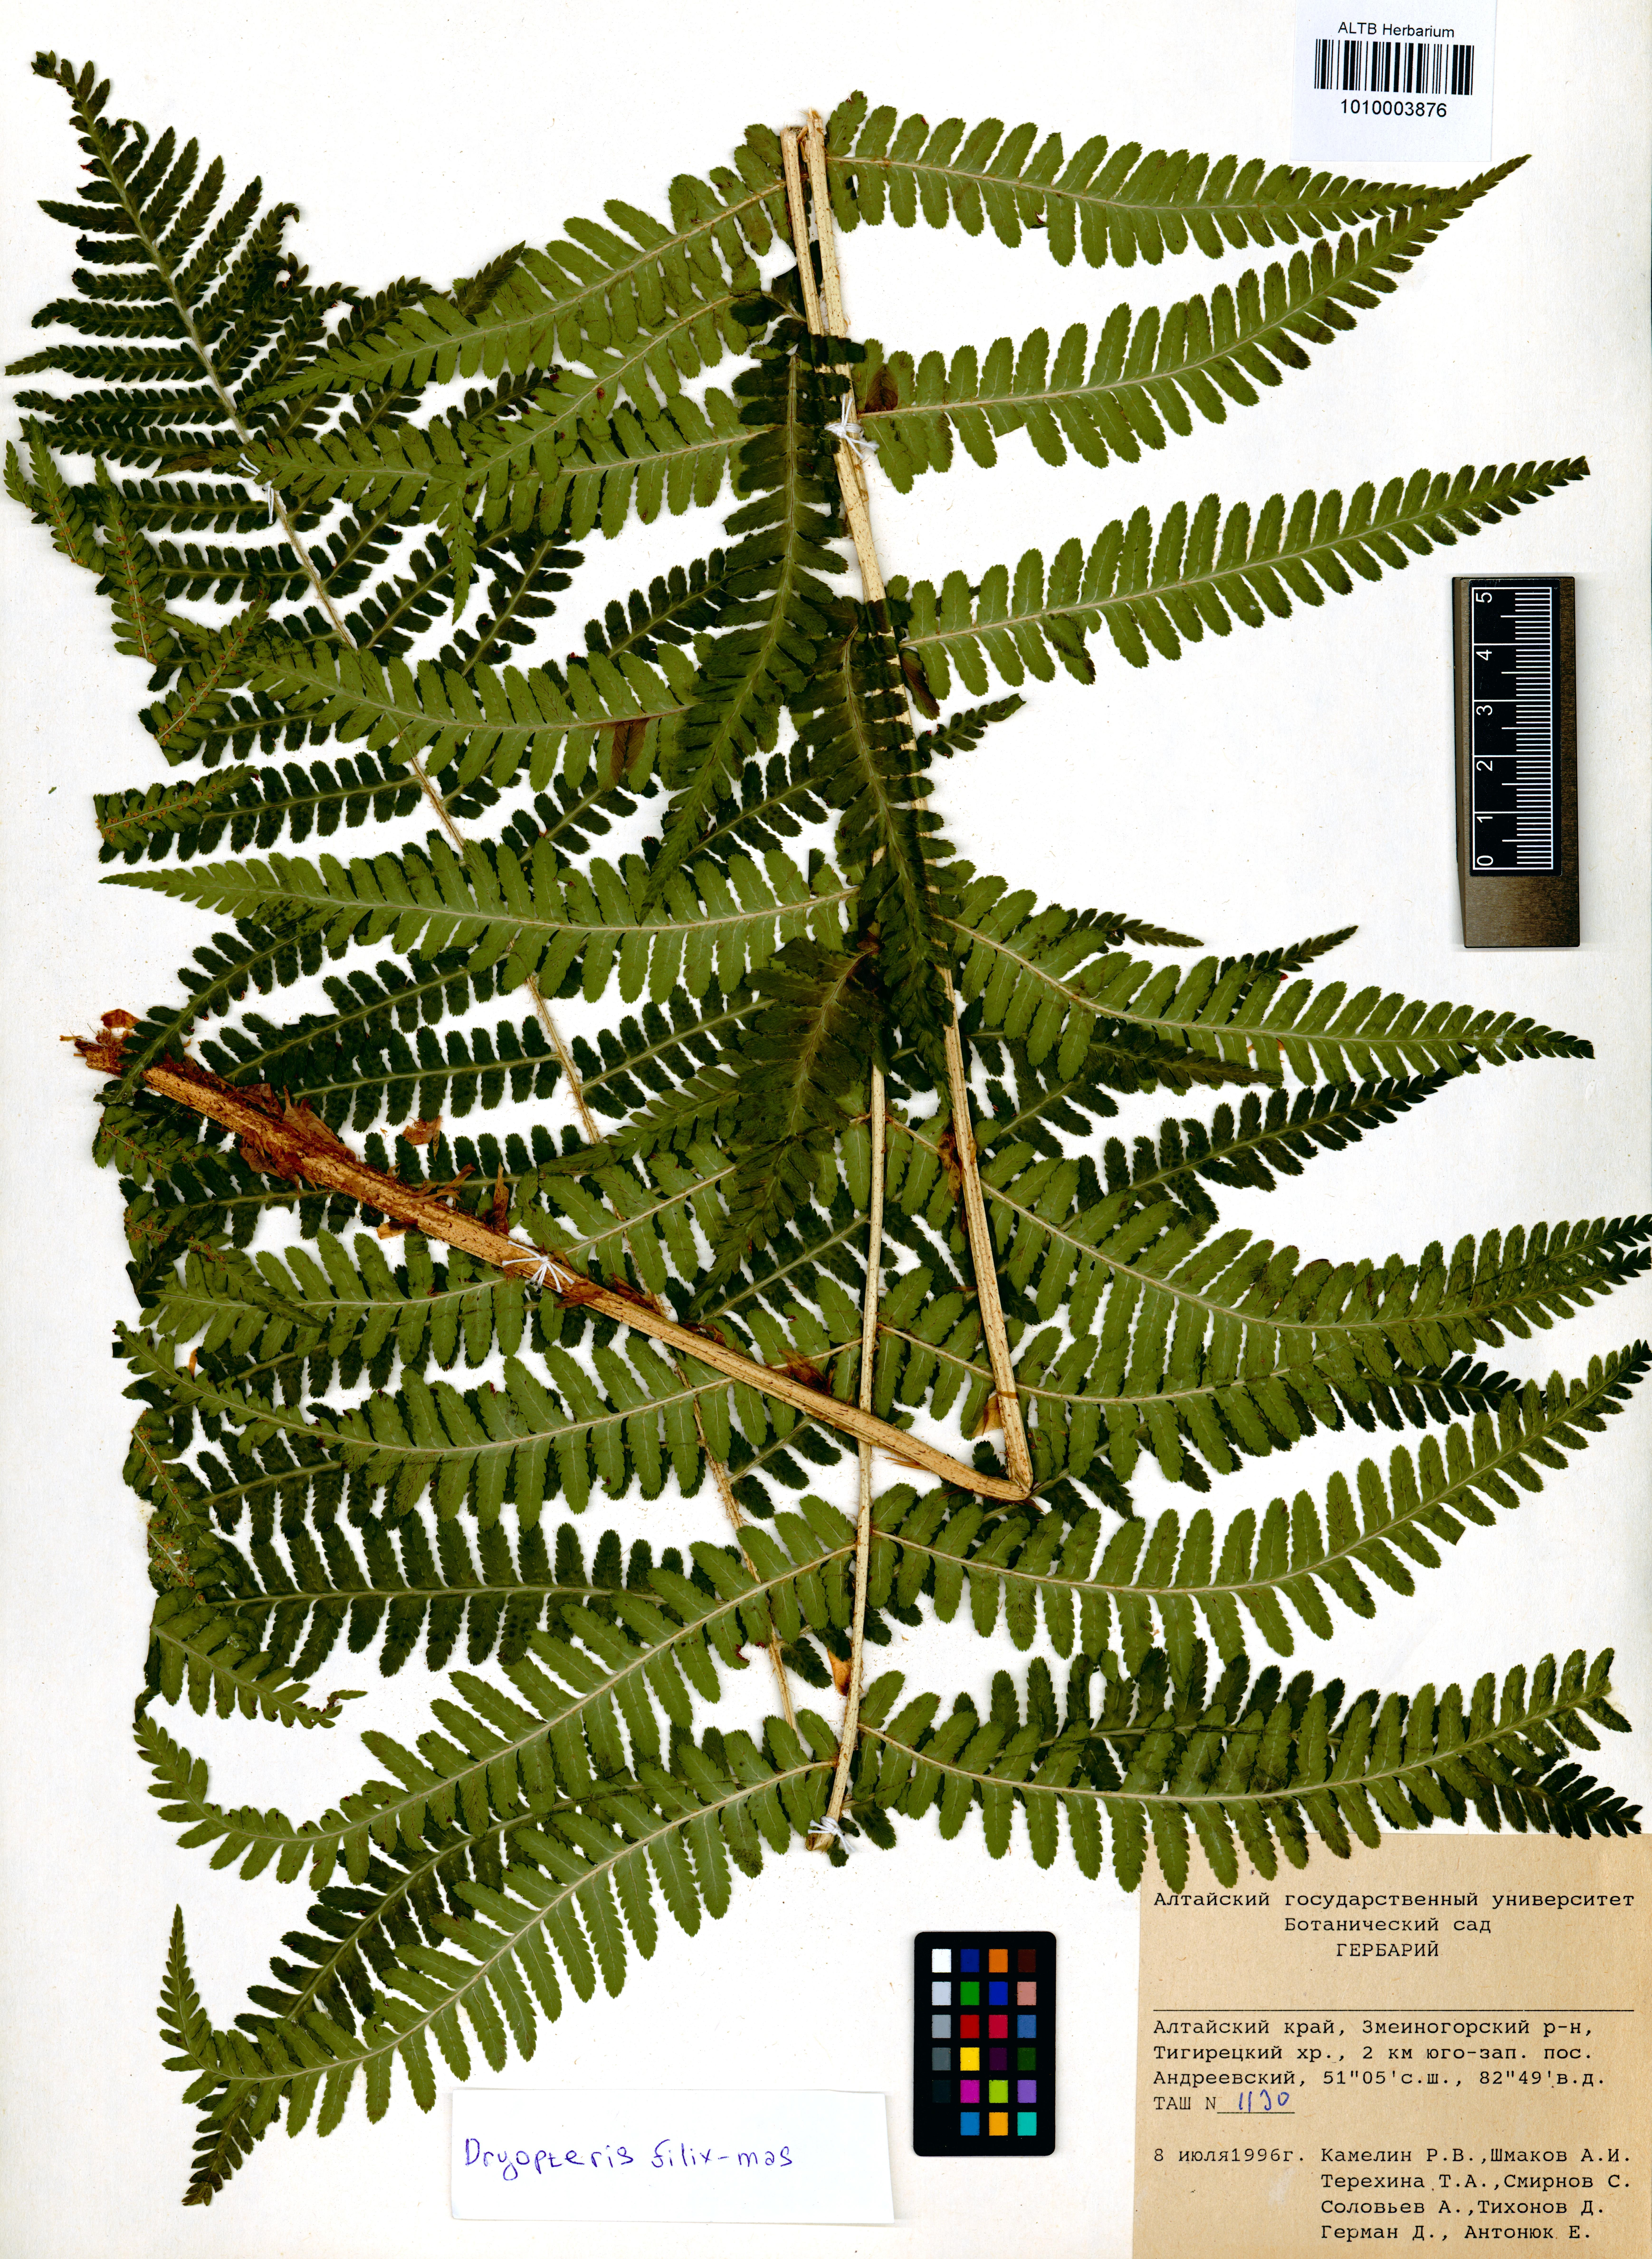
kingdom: Plantae
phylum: Tracheophyta
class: Polypodiopsida
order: Polypodiales
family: Dryopteridaceae
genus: Dryopteris
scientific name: Dryopteris filix-mas
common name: Male fern
